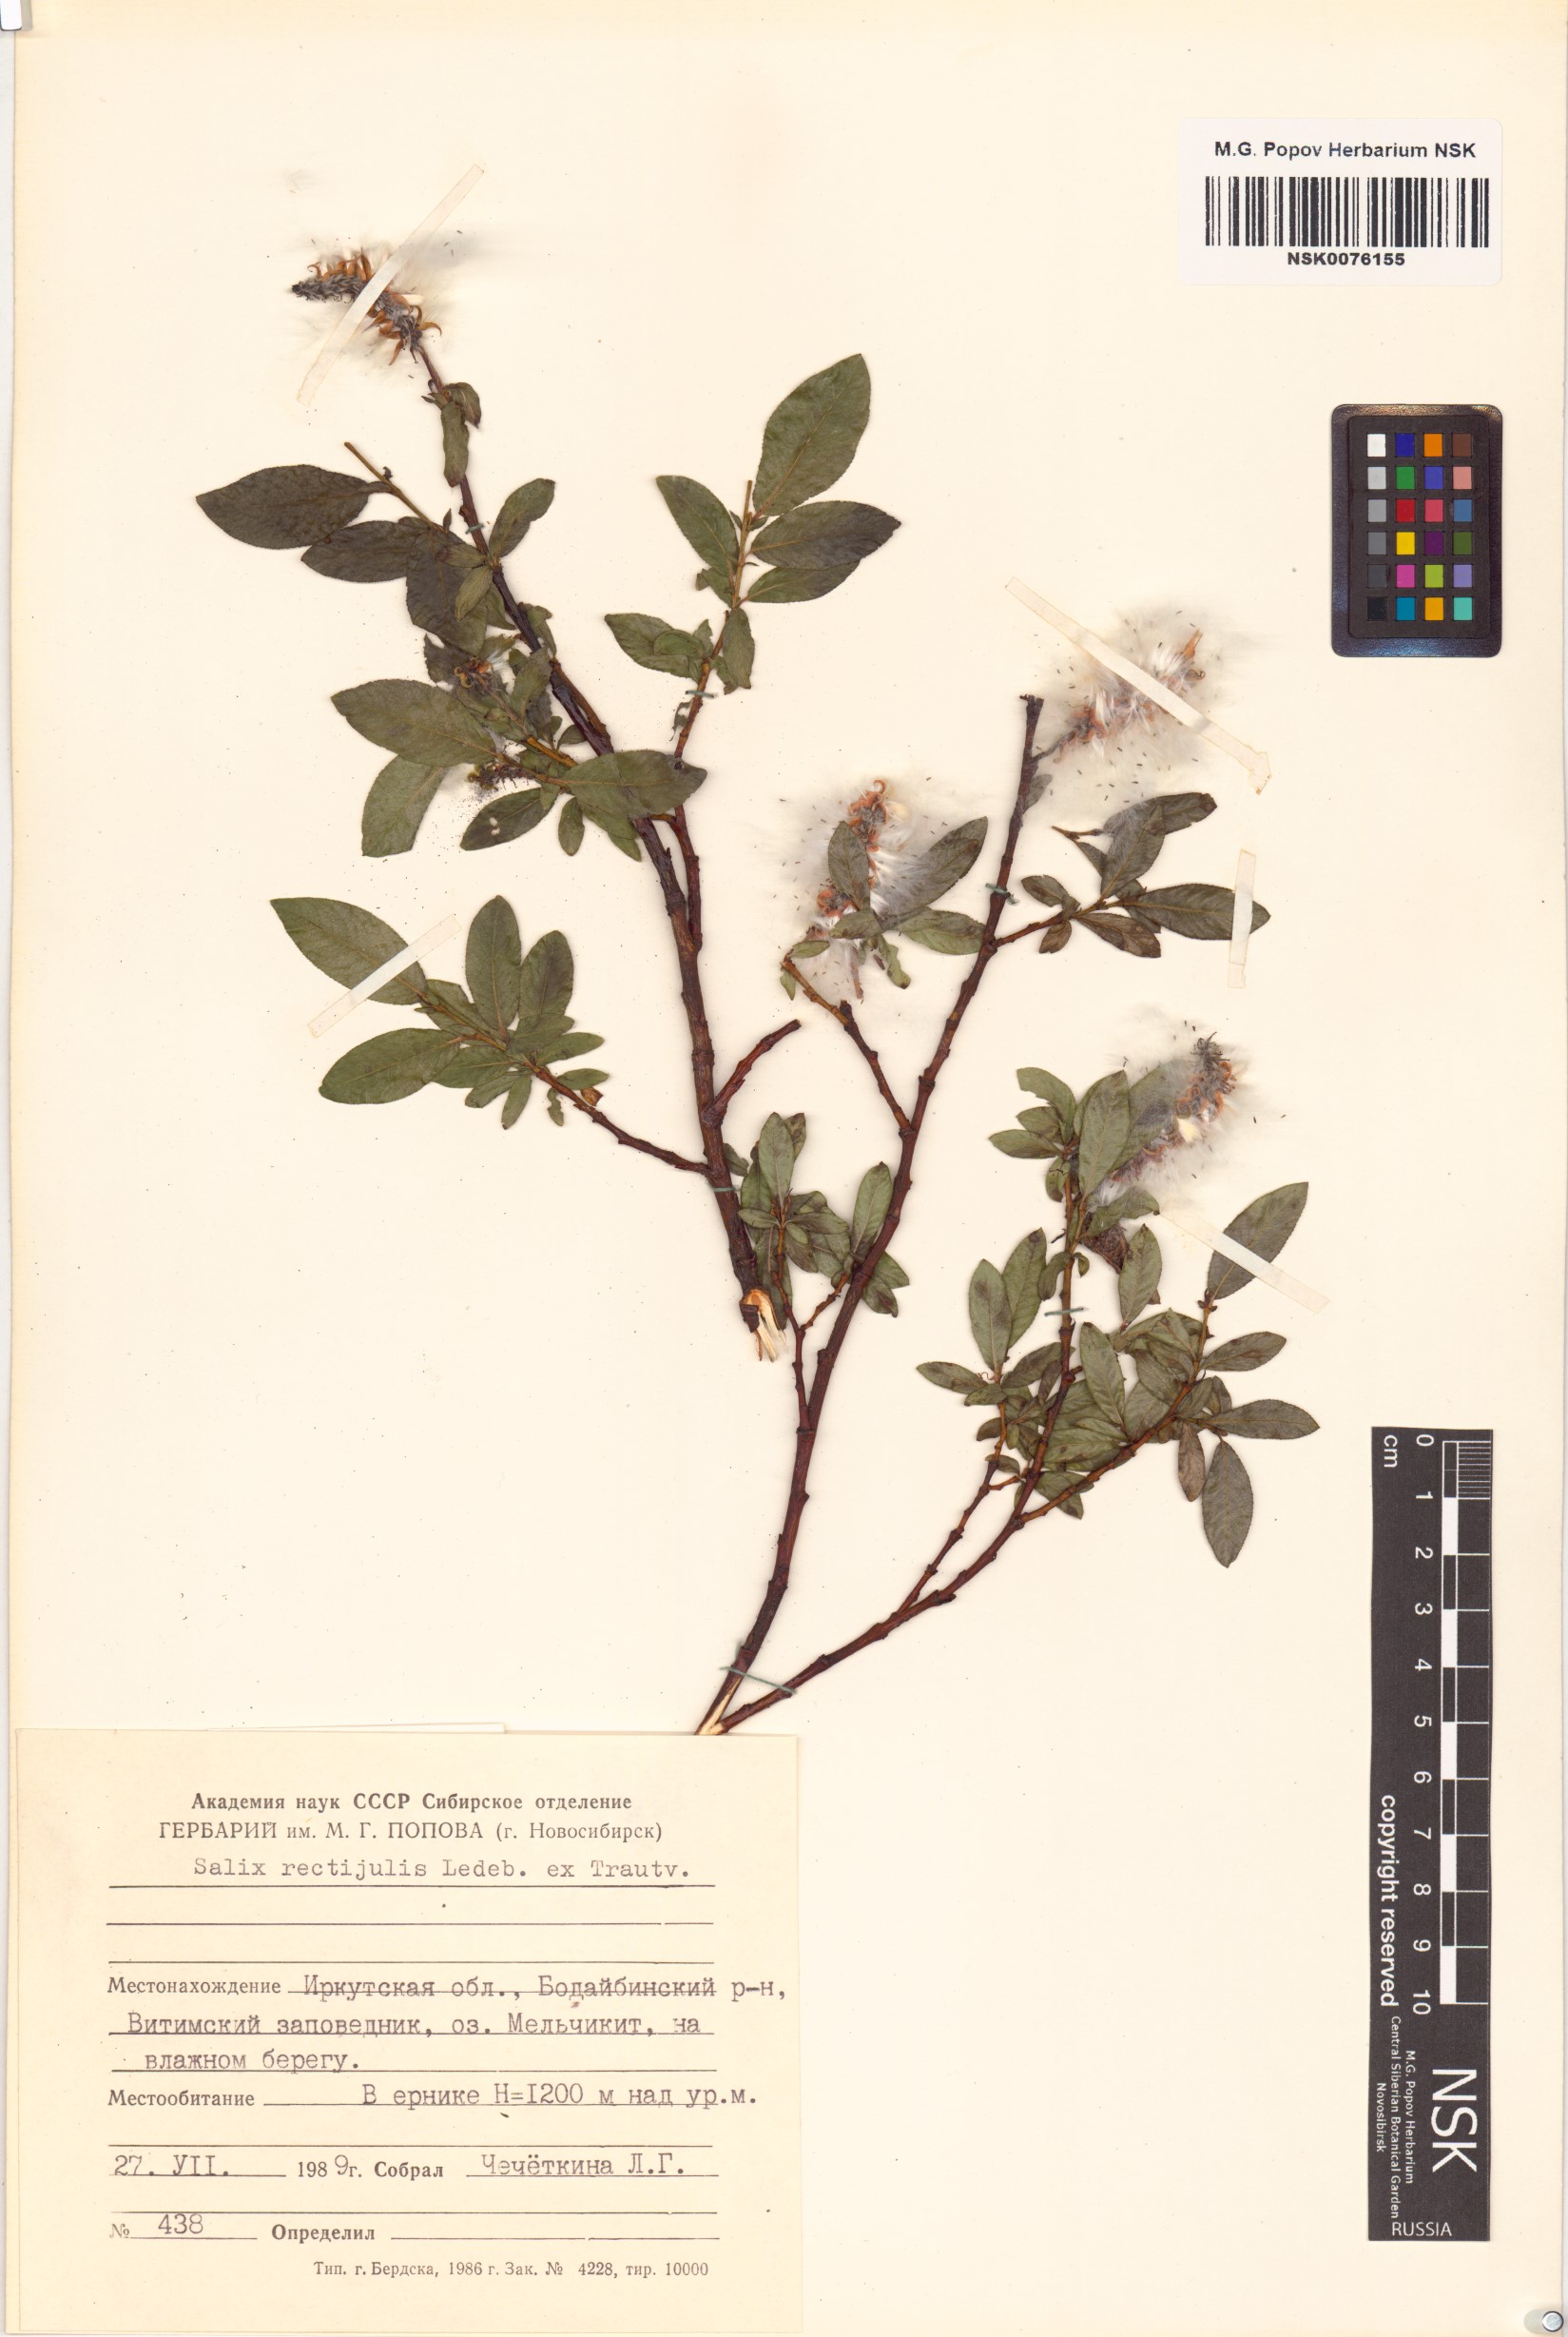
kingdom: Plantae
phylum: Tracheophyta
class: Magnoliopsida
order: Malpighiales
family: Salicaceae
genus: Salix
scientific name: Salix rectijulis
